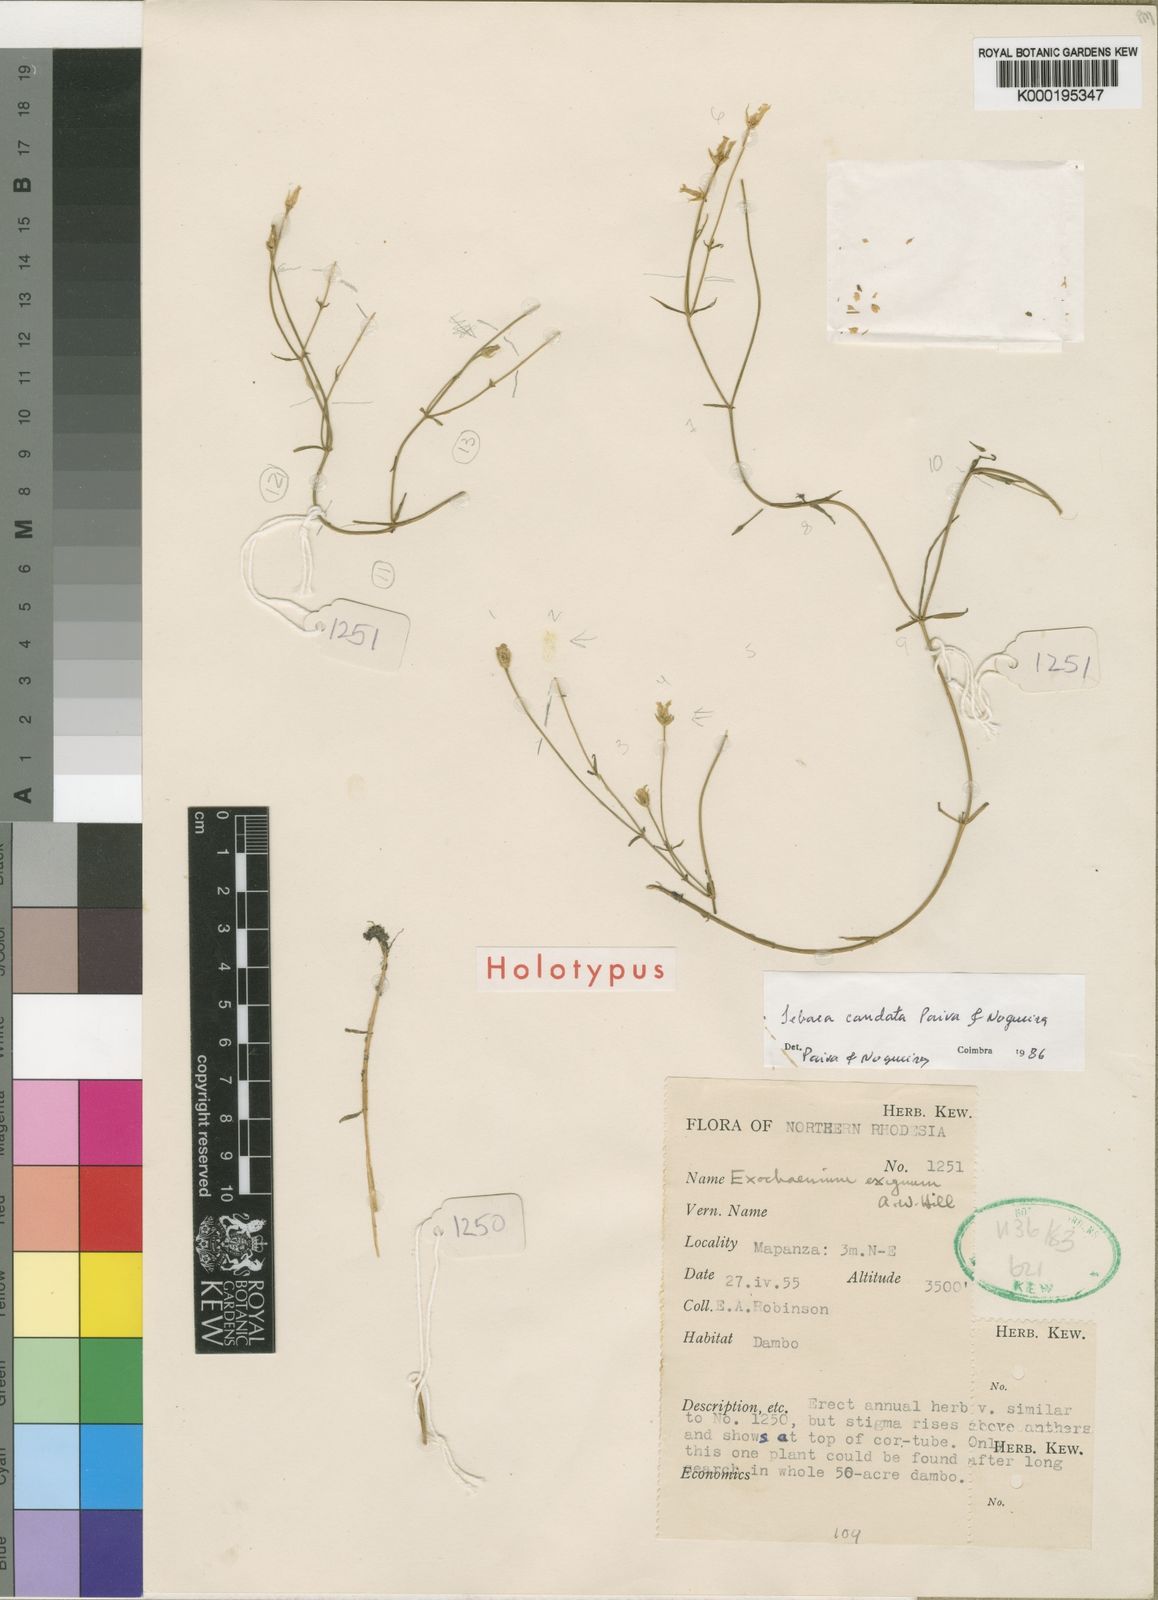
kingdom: Plantae
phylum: Tracheophyta
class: Magnoliopsida
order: Gentianales
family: Gentianaceae
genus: Exochaenium
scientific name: Exochaenium caudatum
